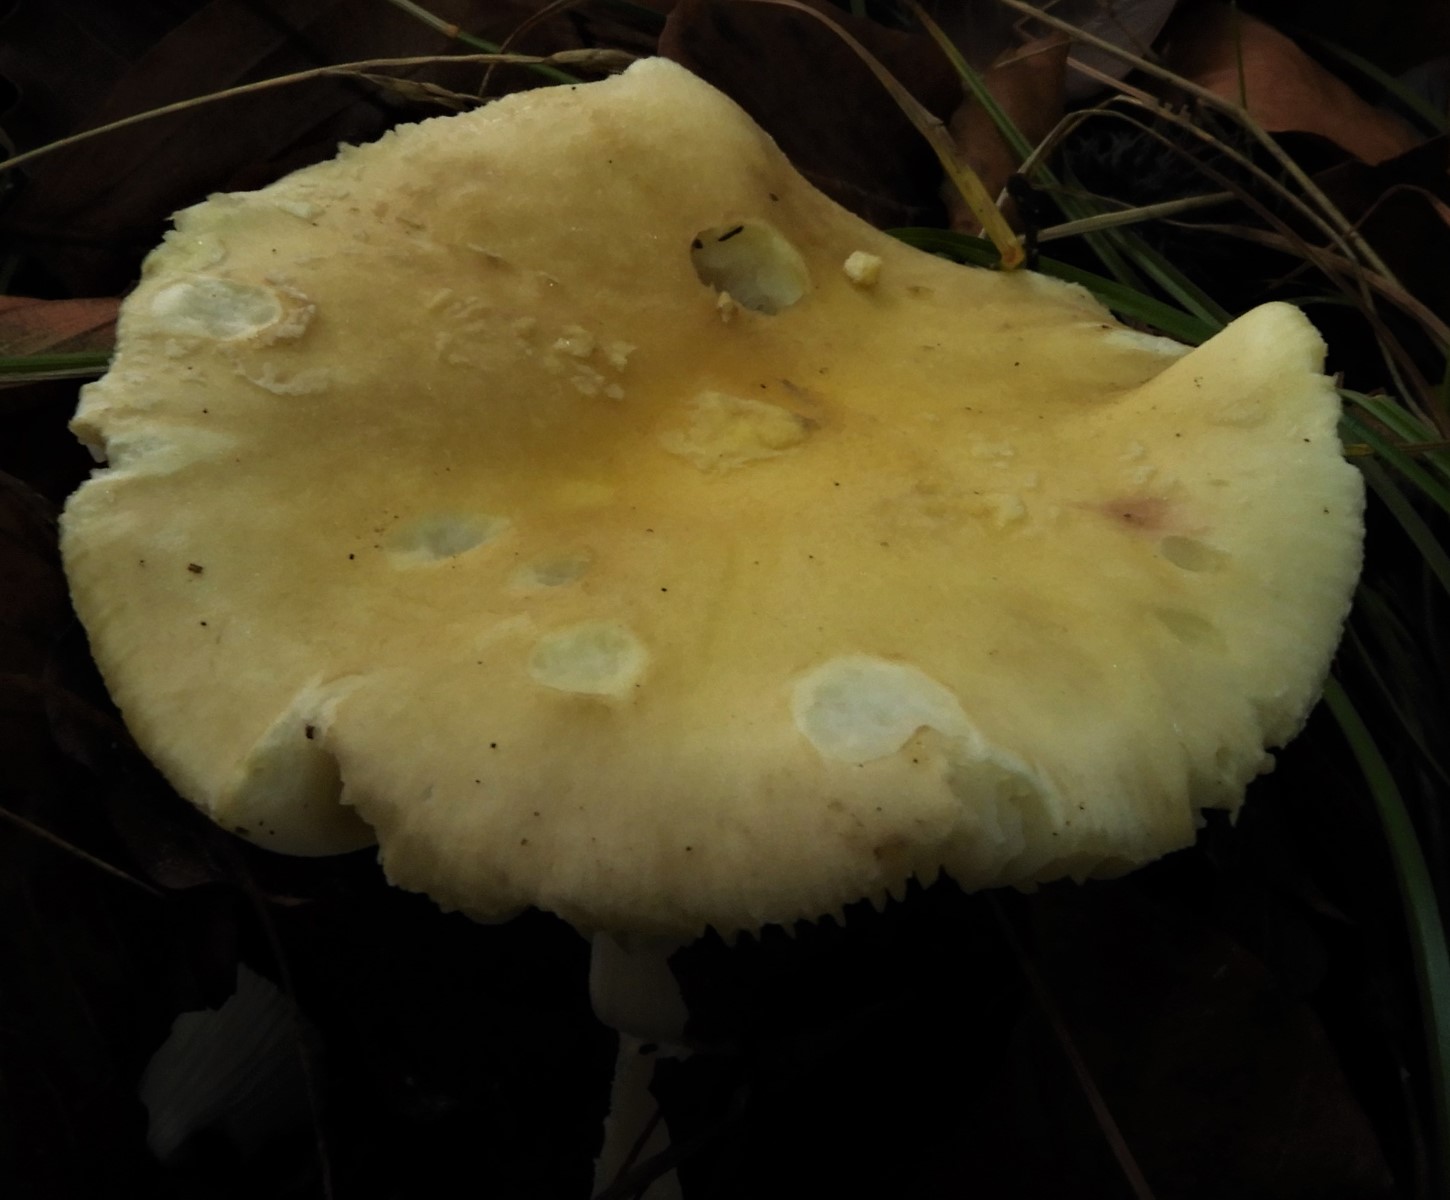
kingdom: Fungi
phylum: Basidiomycota
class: Agaricomycetes
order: Agaricales
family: Amanitaceae
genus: Amanita
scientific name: Amanita
